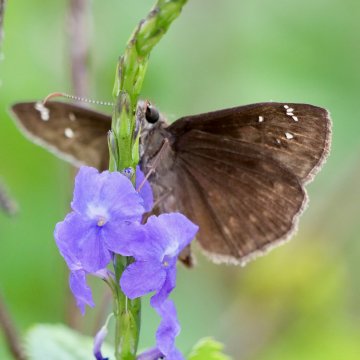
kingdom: Animalia
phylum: Arthropoda
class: Insecta
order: Lepidoptera
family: Hesperiidae
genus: Erynnis
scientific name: Erynnis
